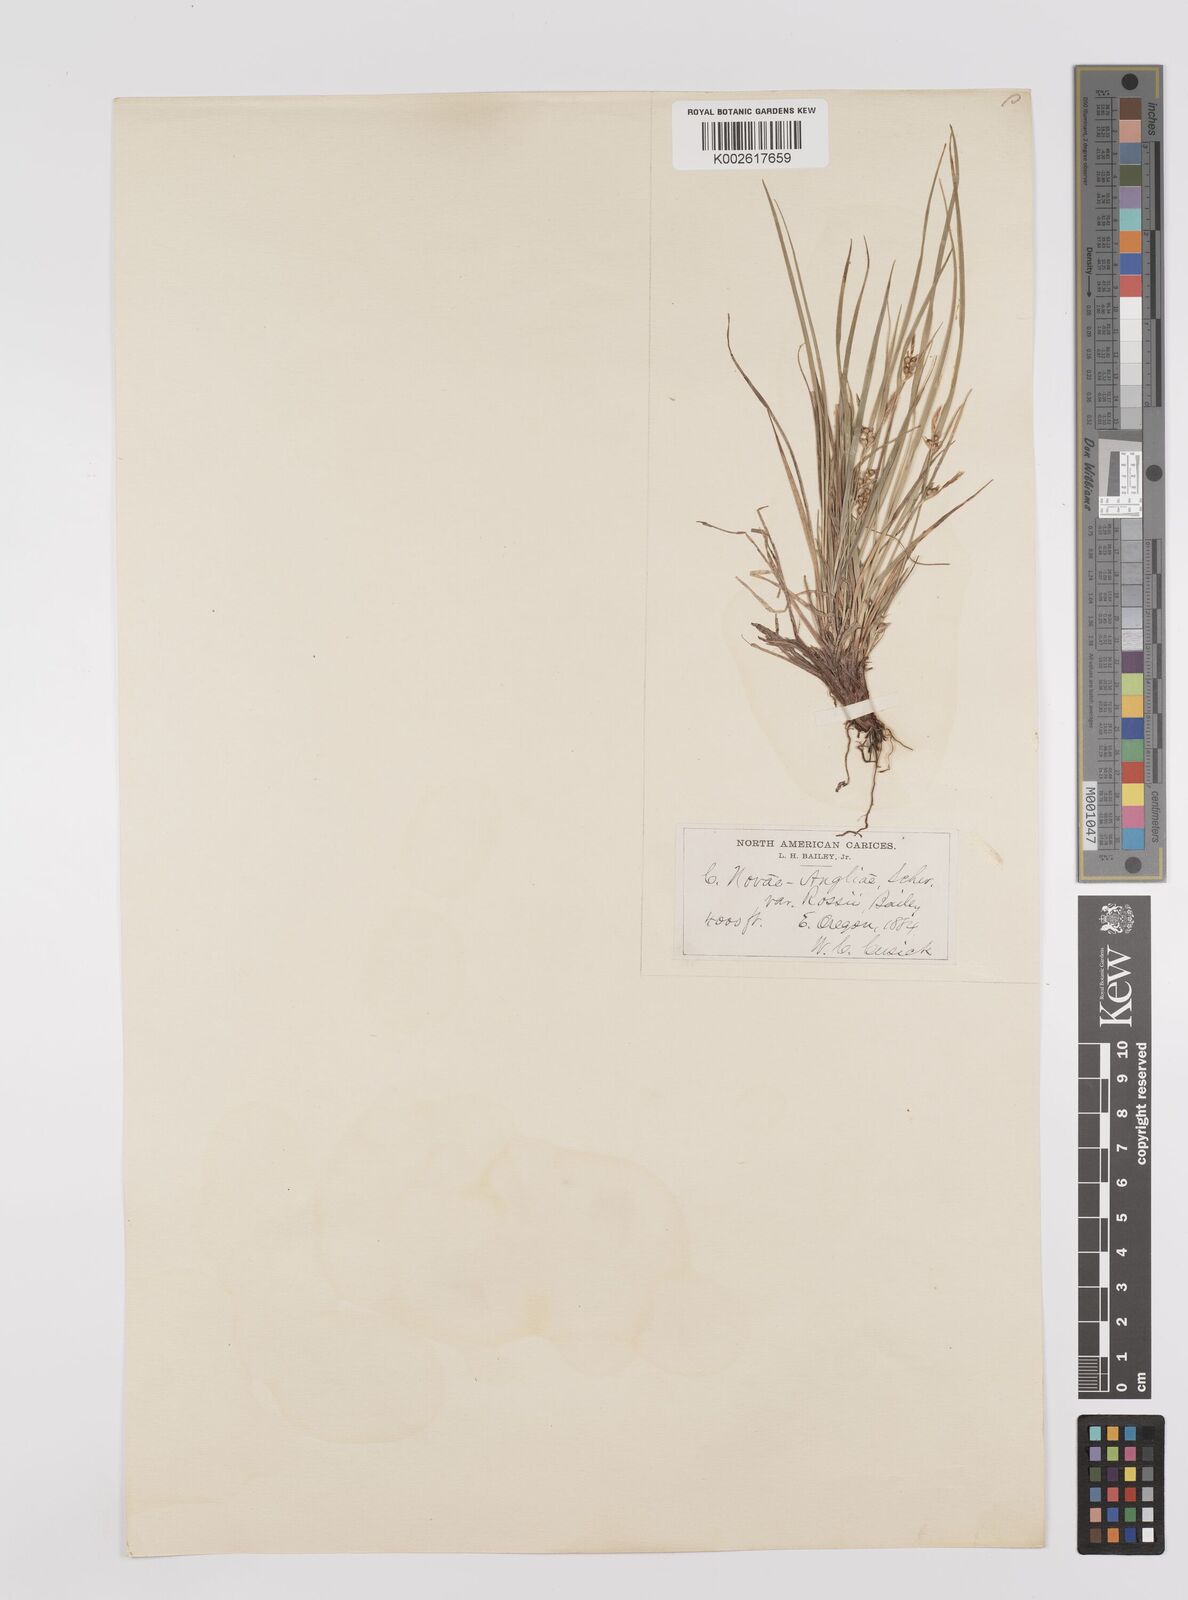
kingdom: Plantae
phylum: Tracheophyta
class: Liliopsida
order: Poales
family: Cyperaceae
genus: Carex
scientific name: Carex rossii
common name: Ross' sedge
